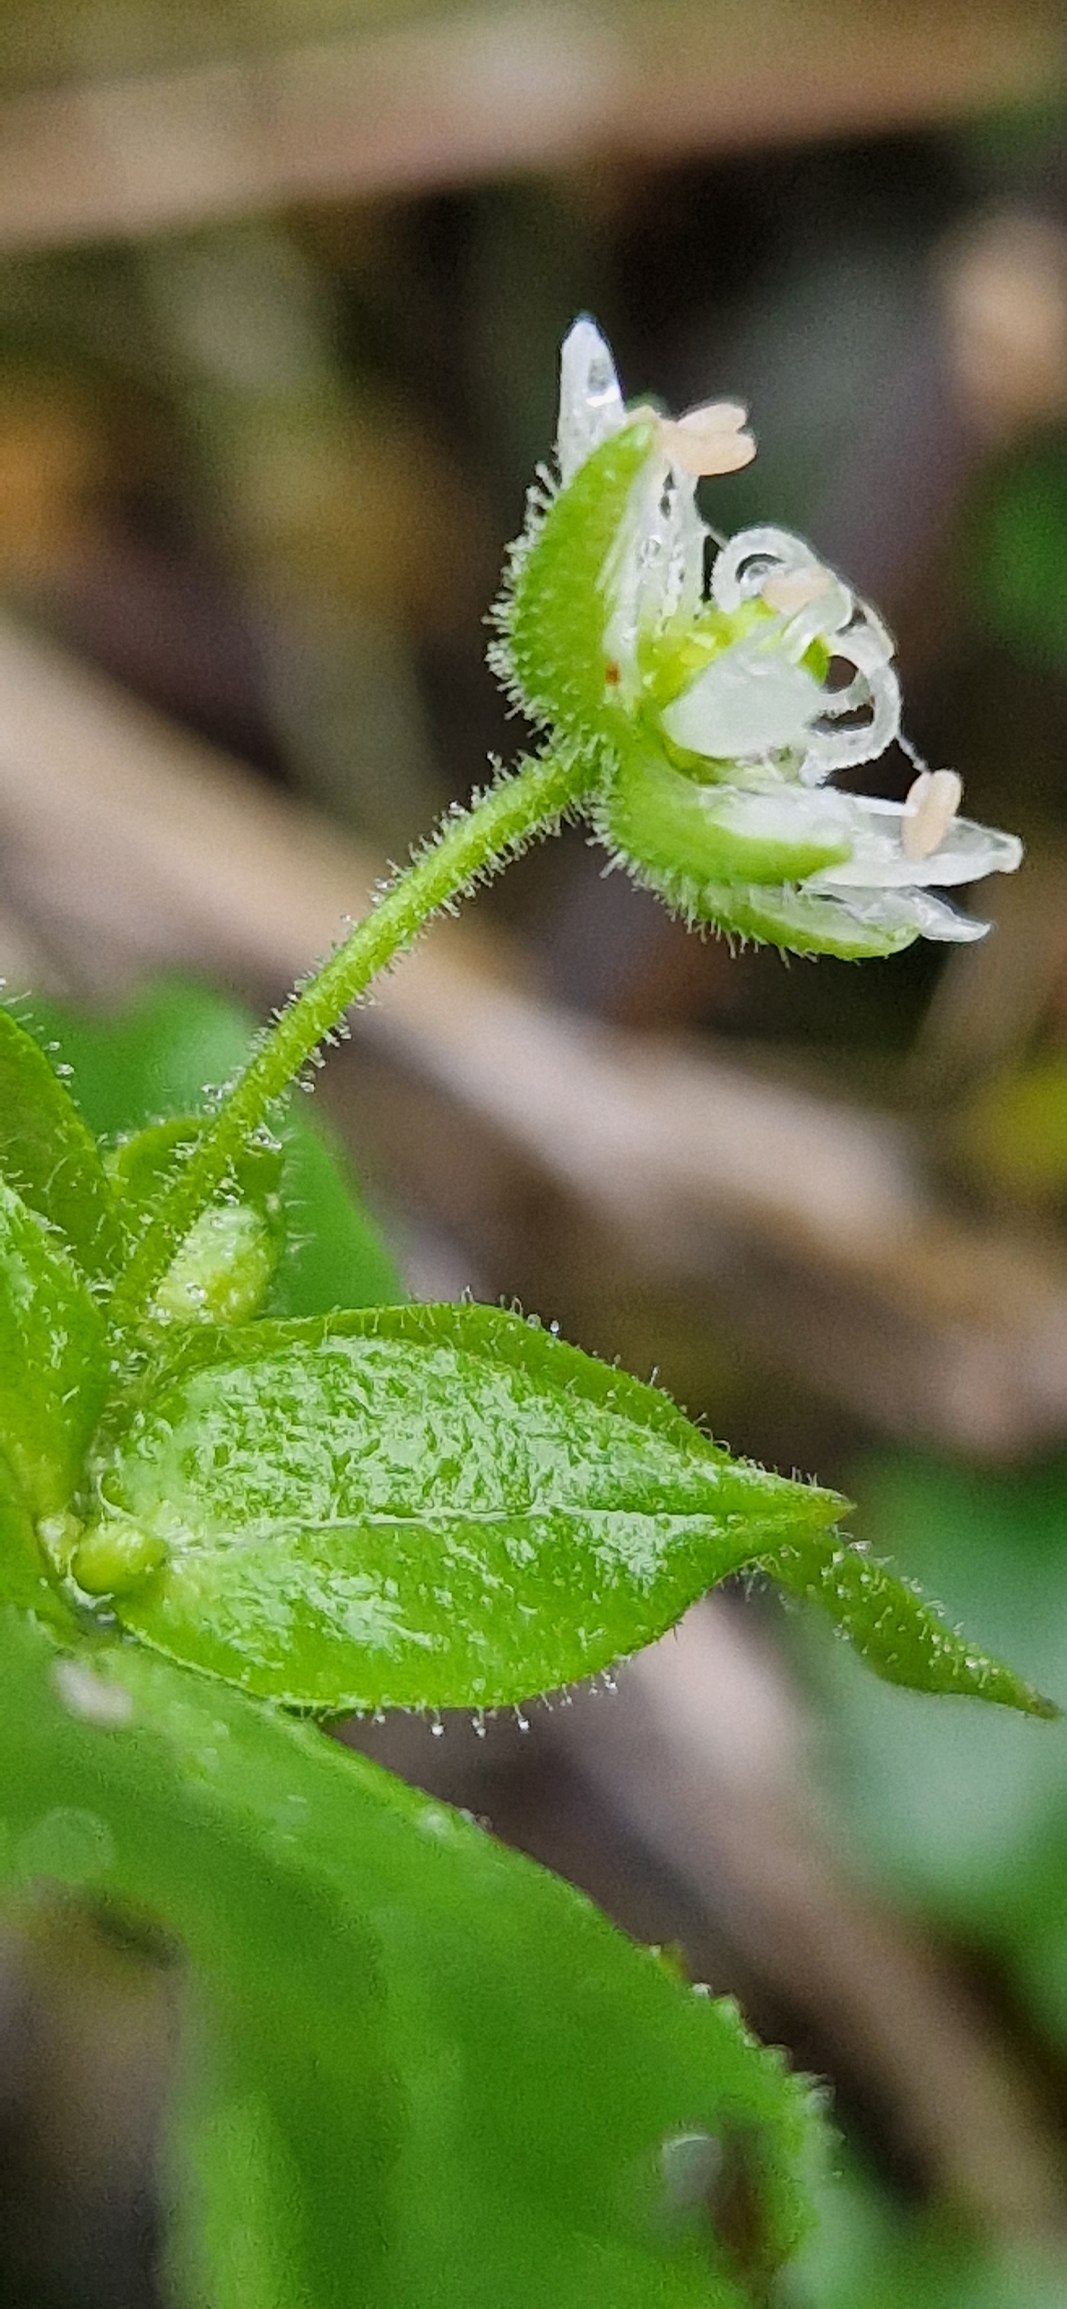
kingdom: Plantae
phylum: Tracheophyta
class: Magnoliopsida
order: Caryophyllales
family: Caryophyllaceae
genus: Stellaria
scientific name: Stellaria aquatica
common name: Kløvkrone
